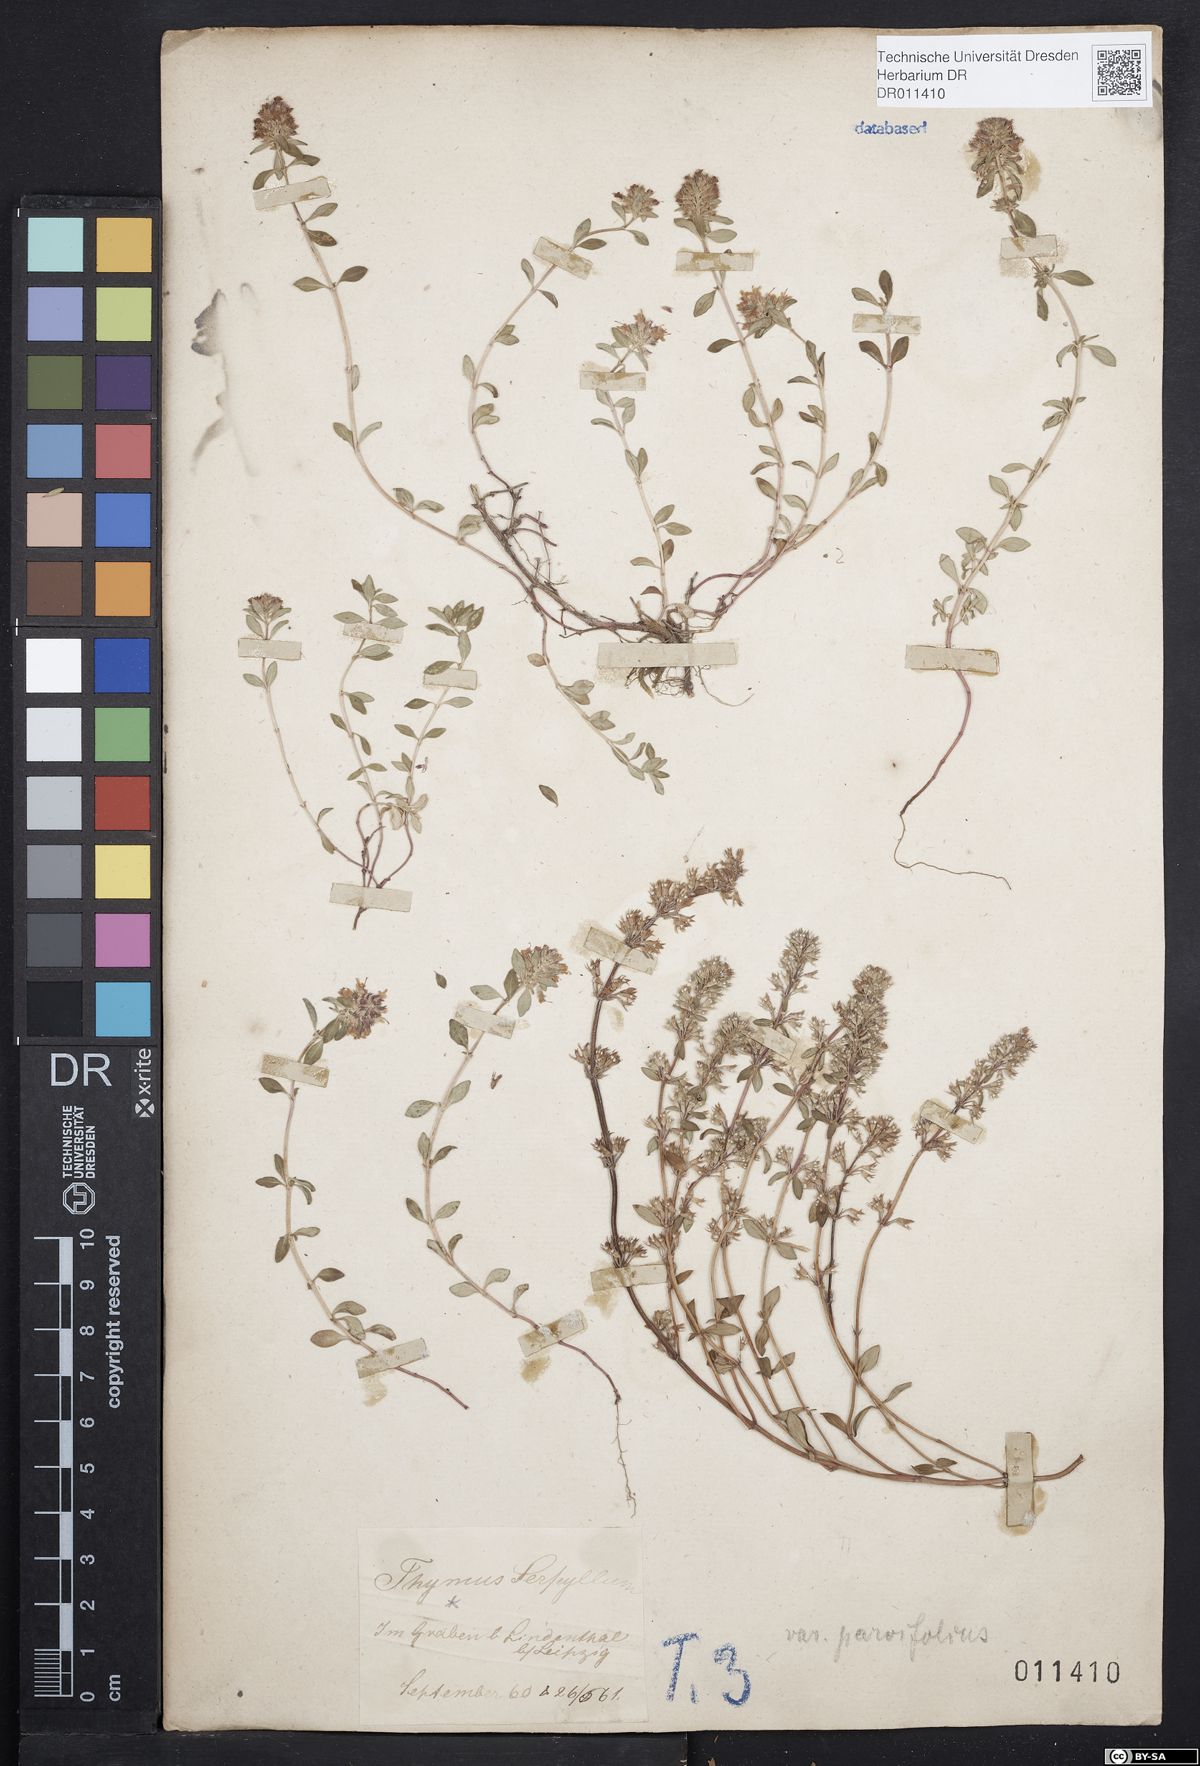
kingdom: Plantae
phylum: Tracheophyta
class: Magnoliopsida
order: Lamiales
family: Lamiaceae
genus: Thymus
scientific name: Thymus pulegioides
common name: Large thyme
